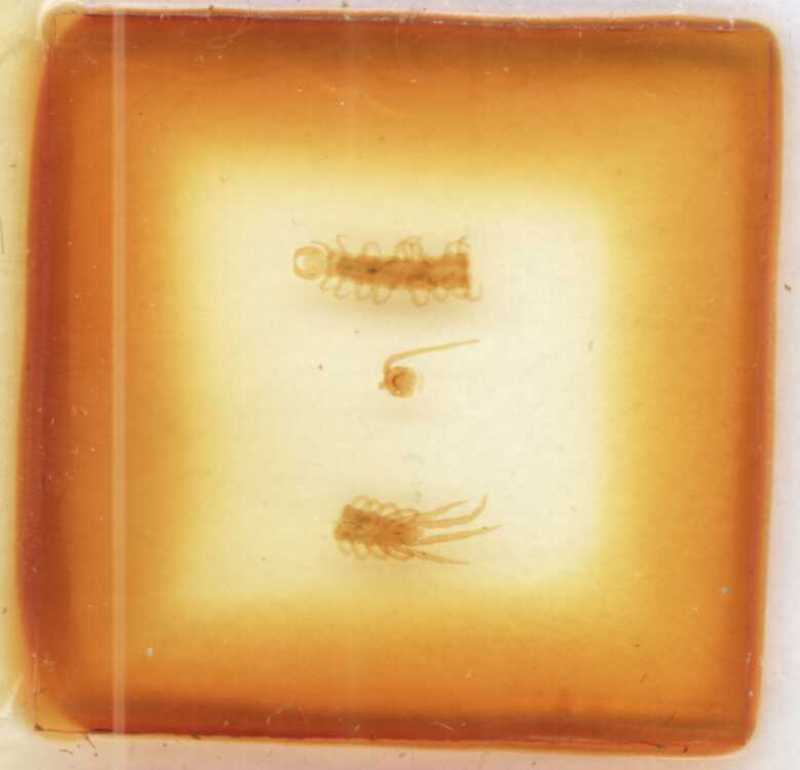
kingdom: Animalia
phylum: Arthropoda
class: Chilopoda
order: Lithobiomorpha
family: Lithobiidae
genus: Lithobius
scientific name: Lithobius lapidicola
